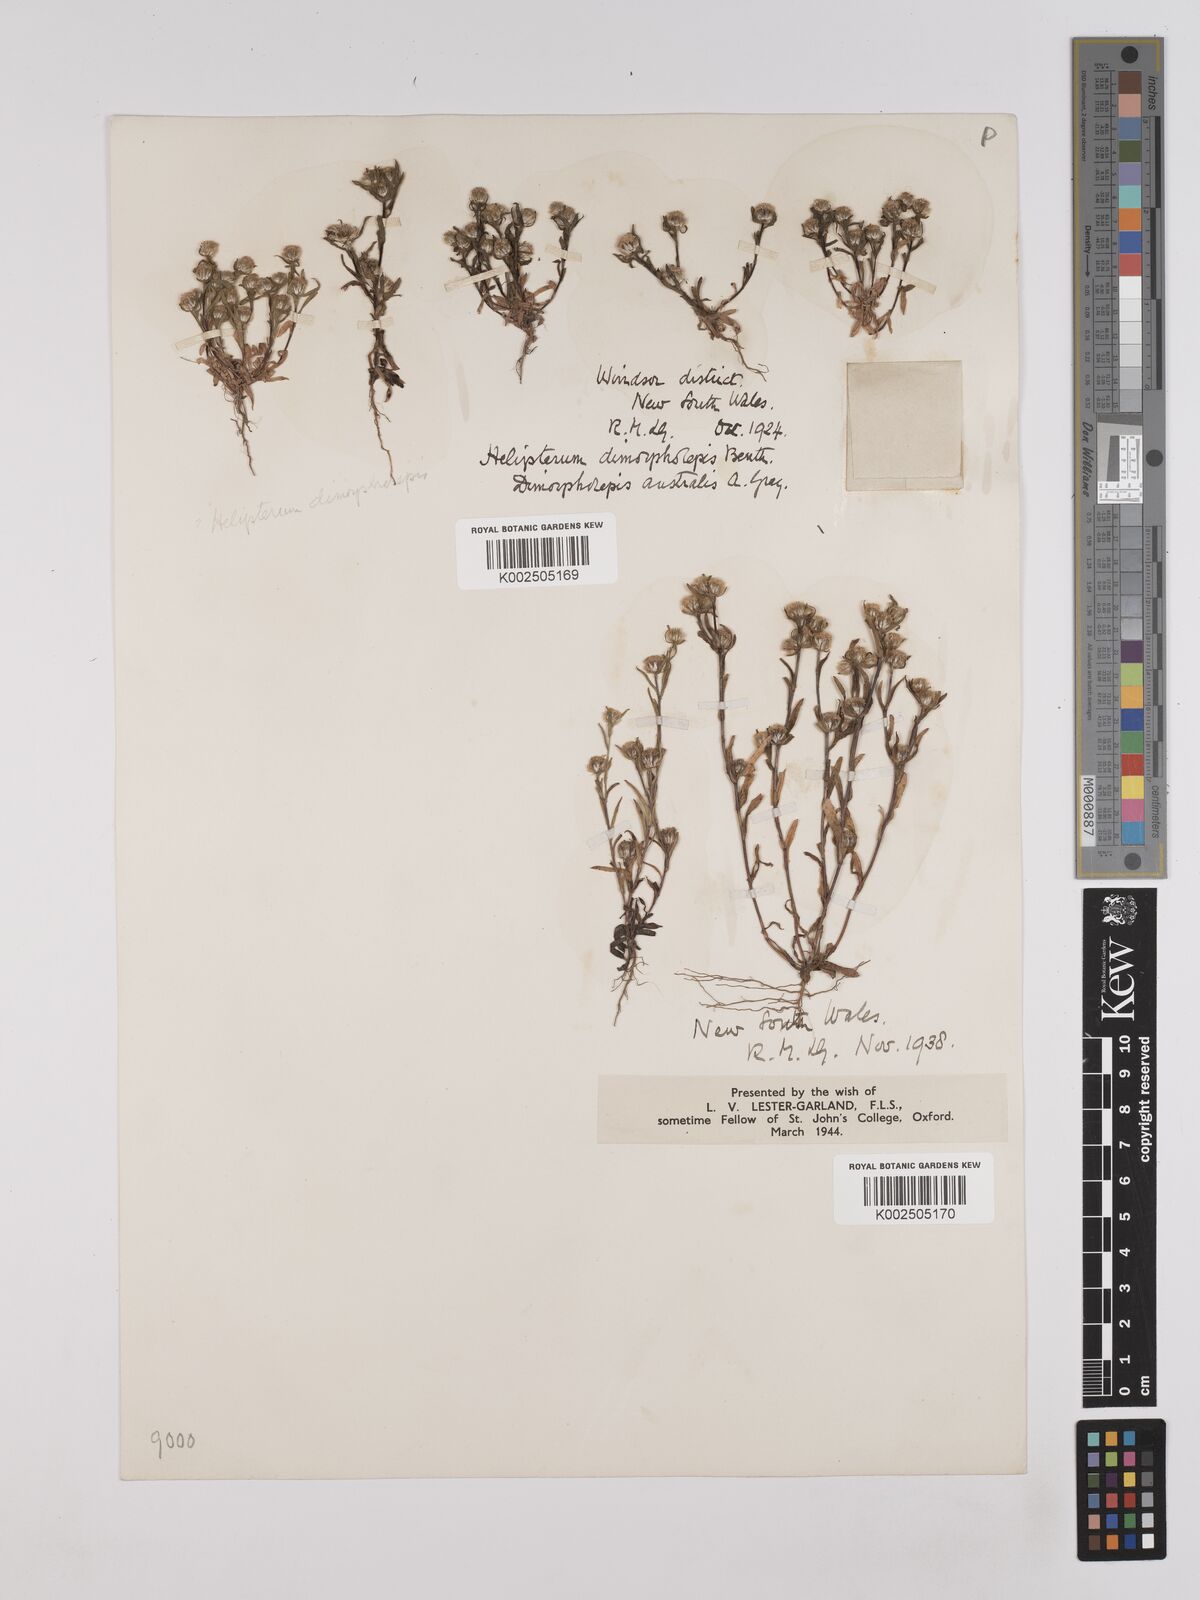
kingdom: Plantae
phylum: Tracheophyta
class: Magnoliopsida
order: Asterales
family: Asteraceae
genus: Triptilodiscus
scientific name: Triptilodiscus pygmaeus
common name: Common sunray
